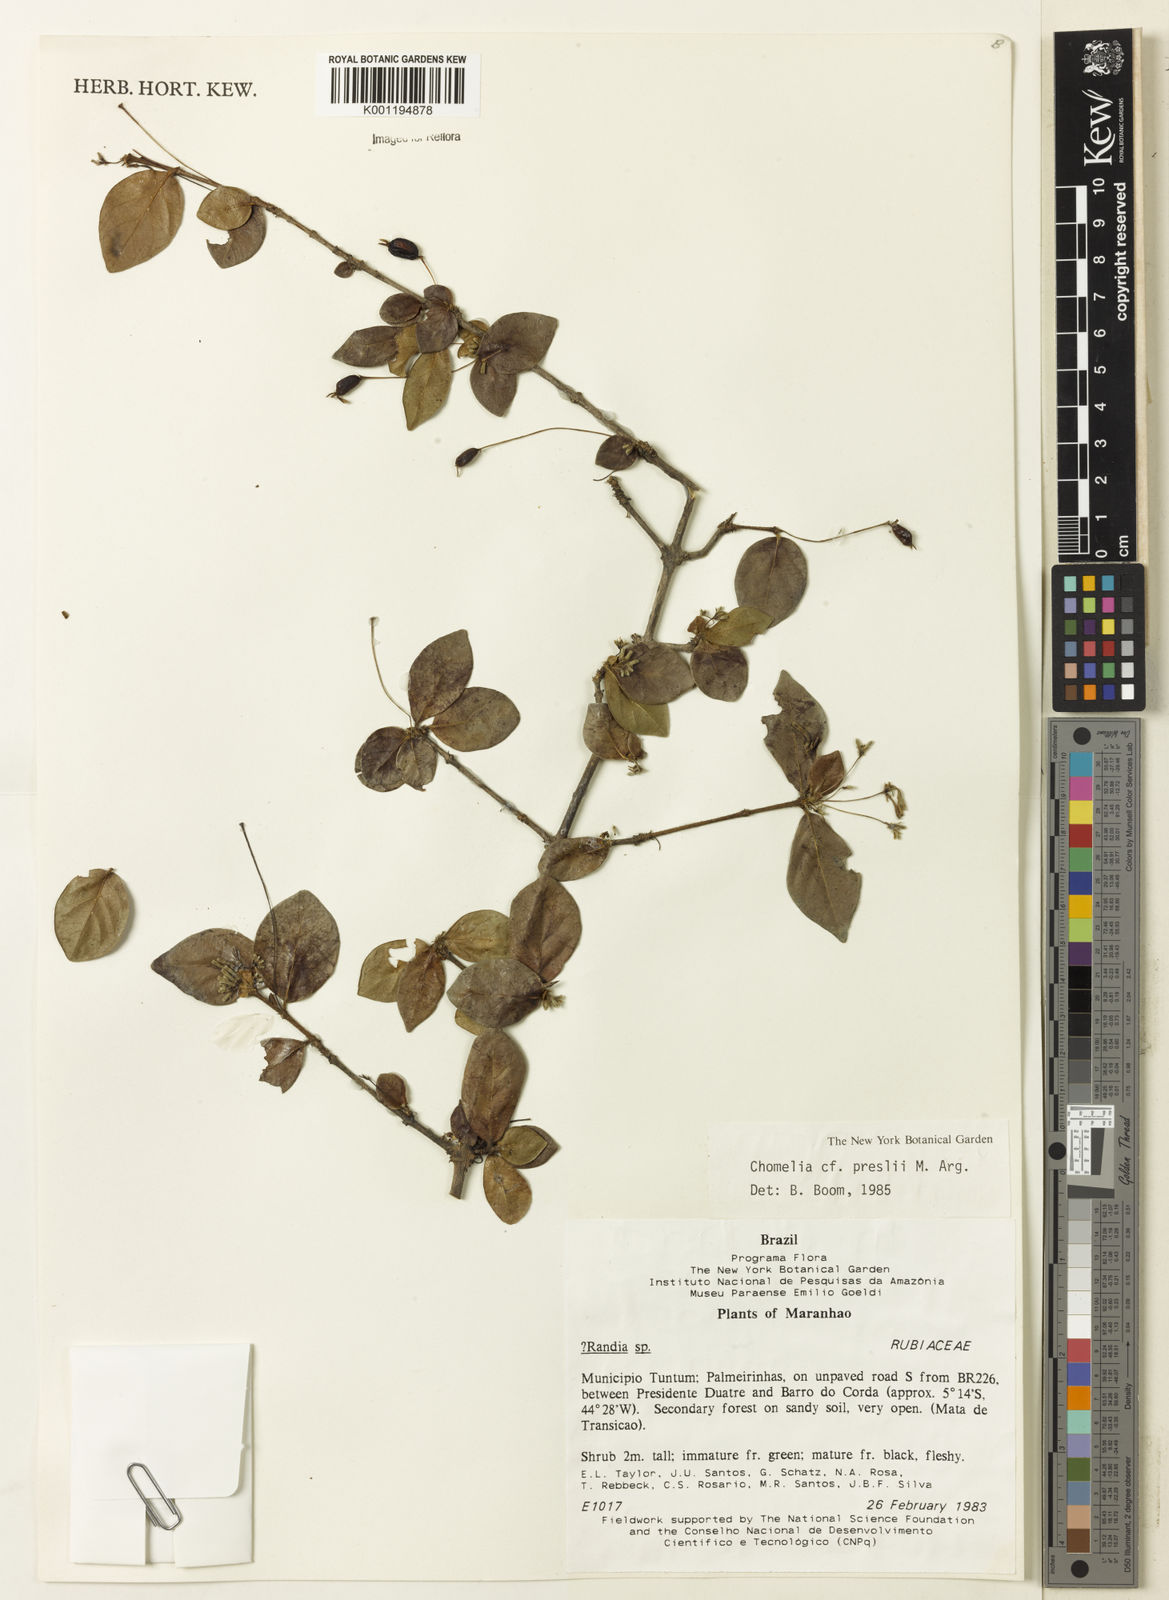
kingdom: Plantae
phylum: Tracheophyta
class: Magnoliopsida
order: Gentianales
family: Rubiaceae
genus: Chomelia
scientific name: Chomelia
